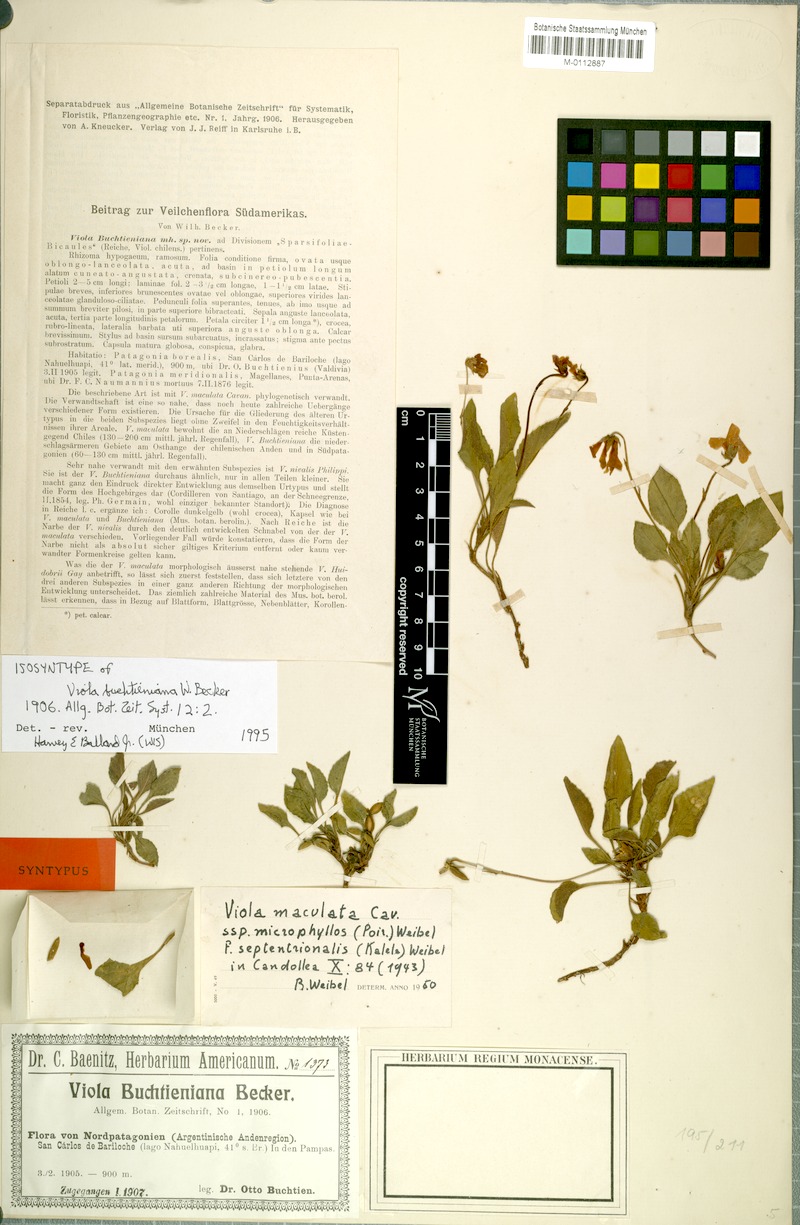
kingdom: Plantae
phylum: Tracheophyta
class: Magnoliopsida
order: Malpighiales
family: Violaceae
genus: Viola
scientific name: Viola maculata
